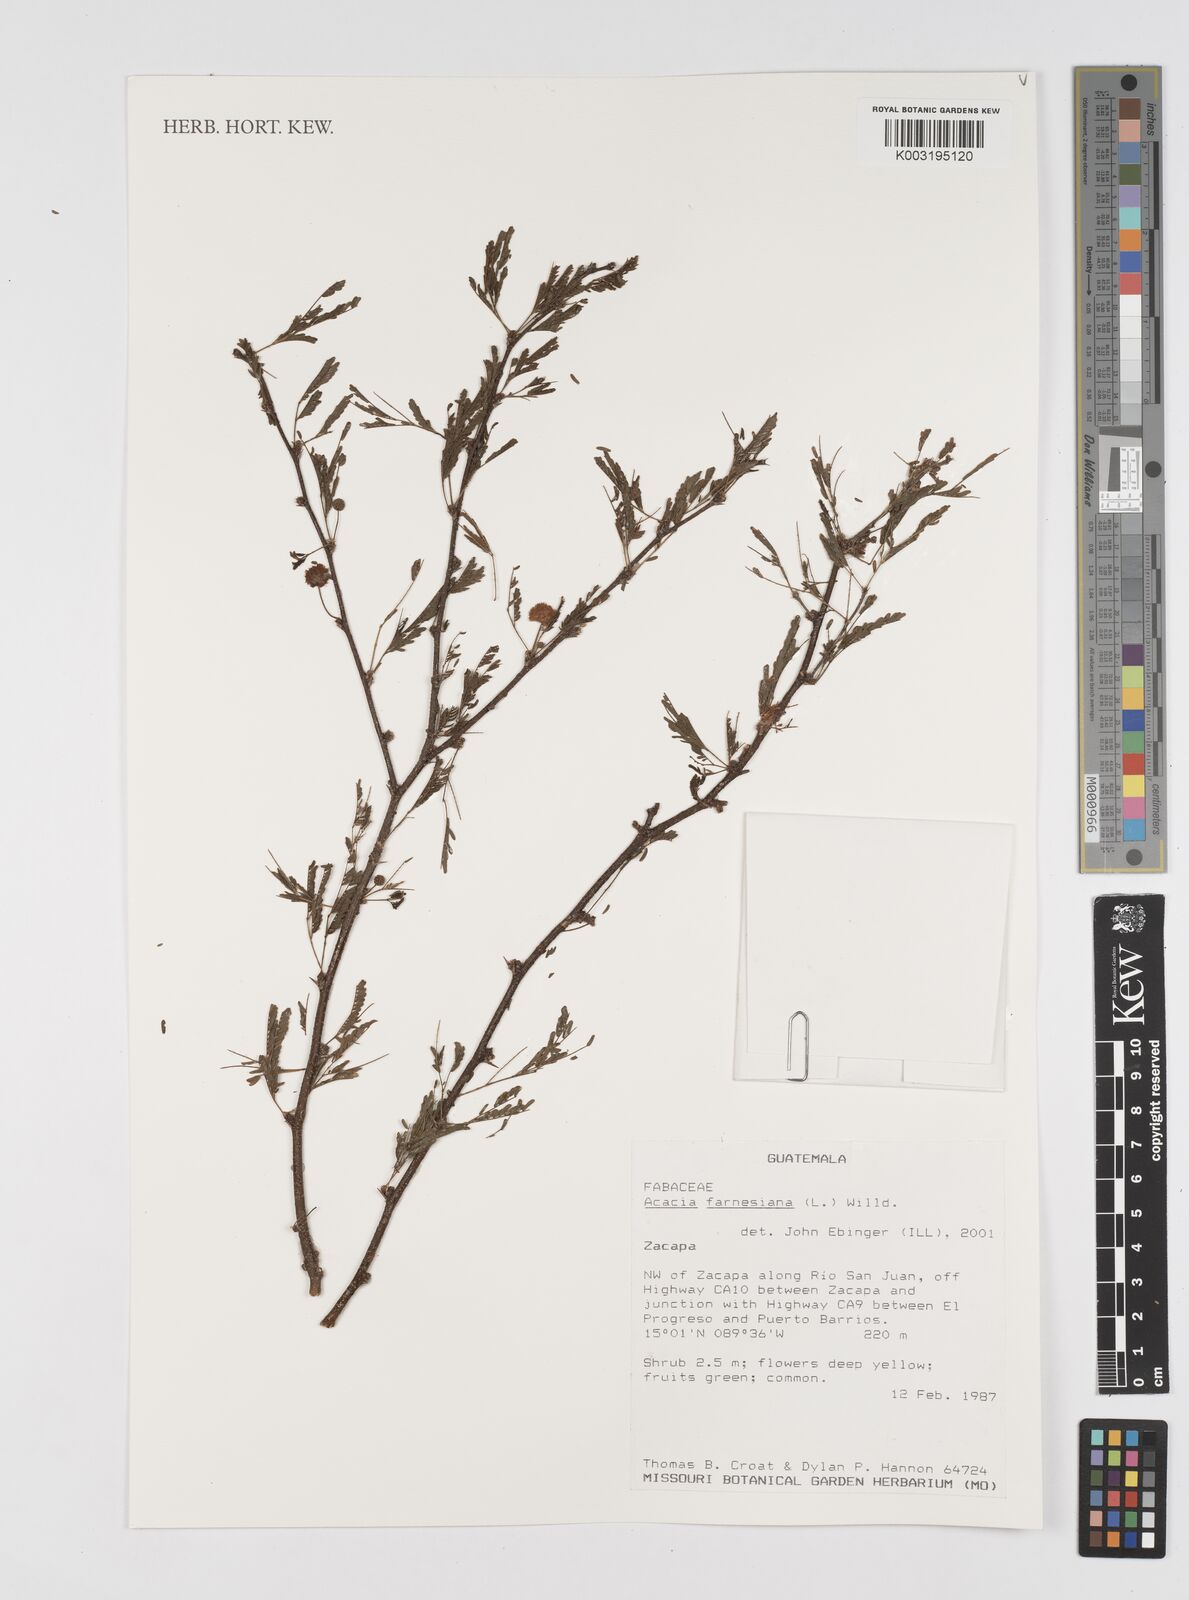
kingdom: Plantae
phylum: Tracheophyta
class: Magnoliopsida
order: Fabales
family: Fabaceae
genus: Vachellia
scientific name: Vachellia farnesiana
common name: Sweet acacia
